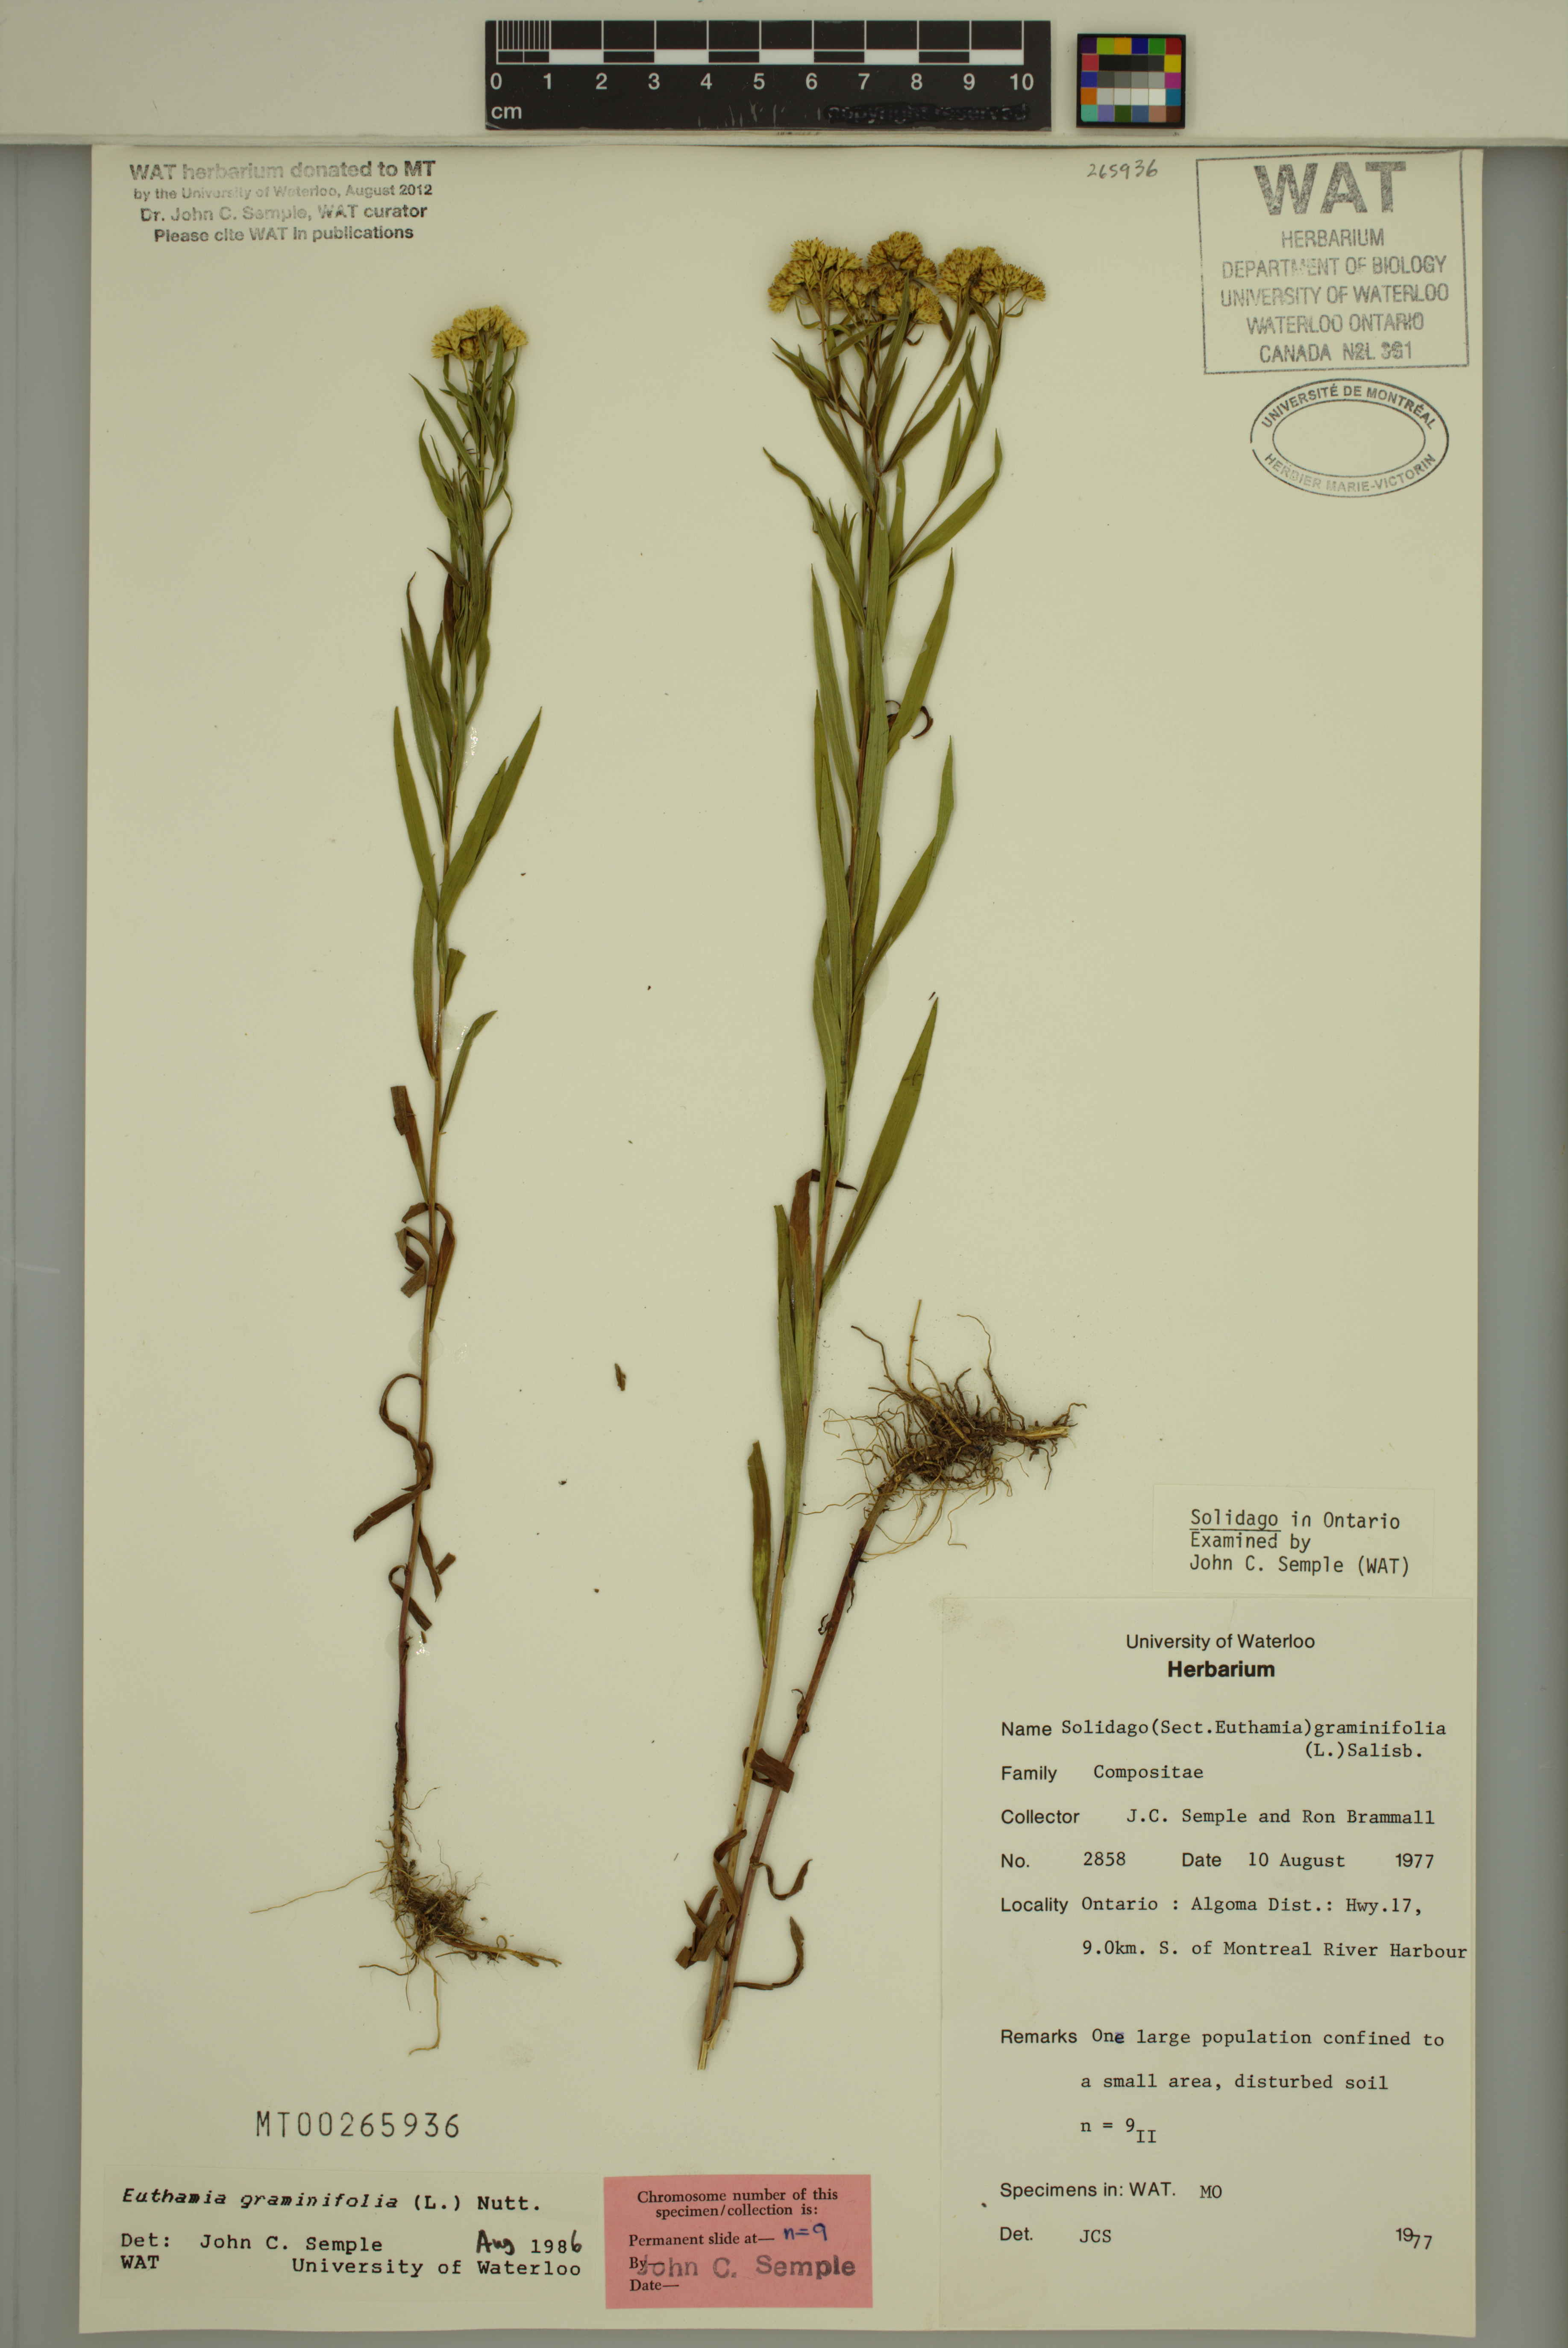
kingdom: Plantae
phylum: Tracheophyta
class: Magnoliopsida
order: Asterales
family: Asteraceae
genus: Euthamia
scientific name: Euthamia graminifolia
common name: Common goldentop
